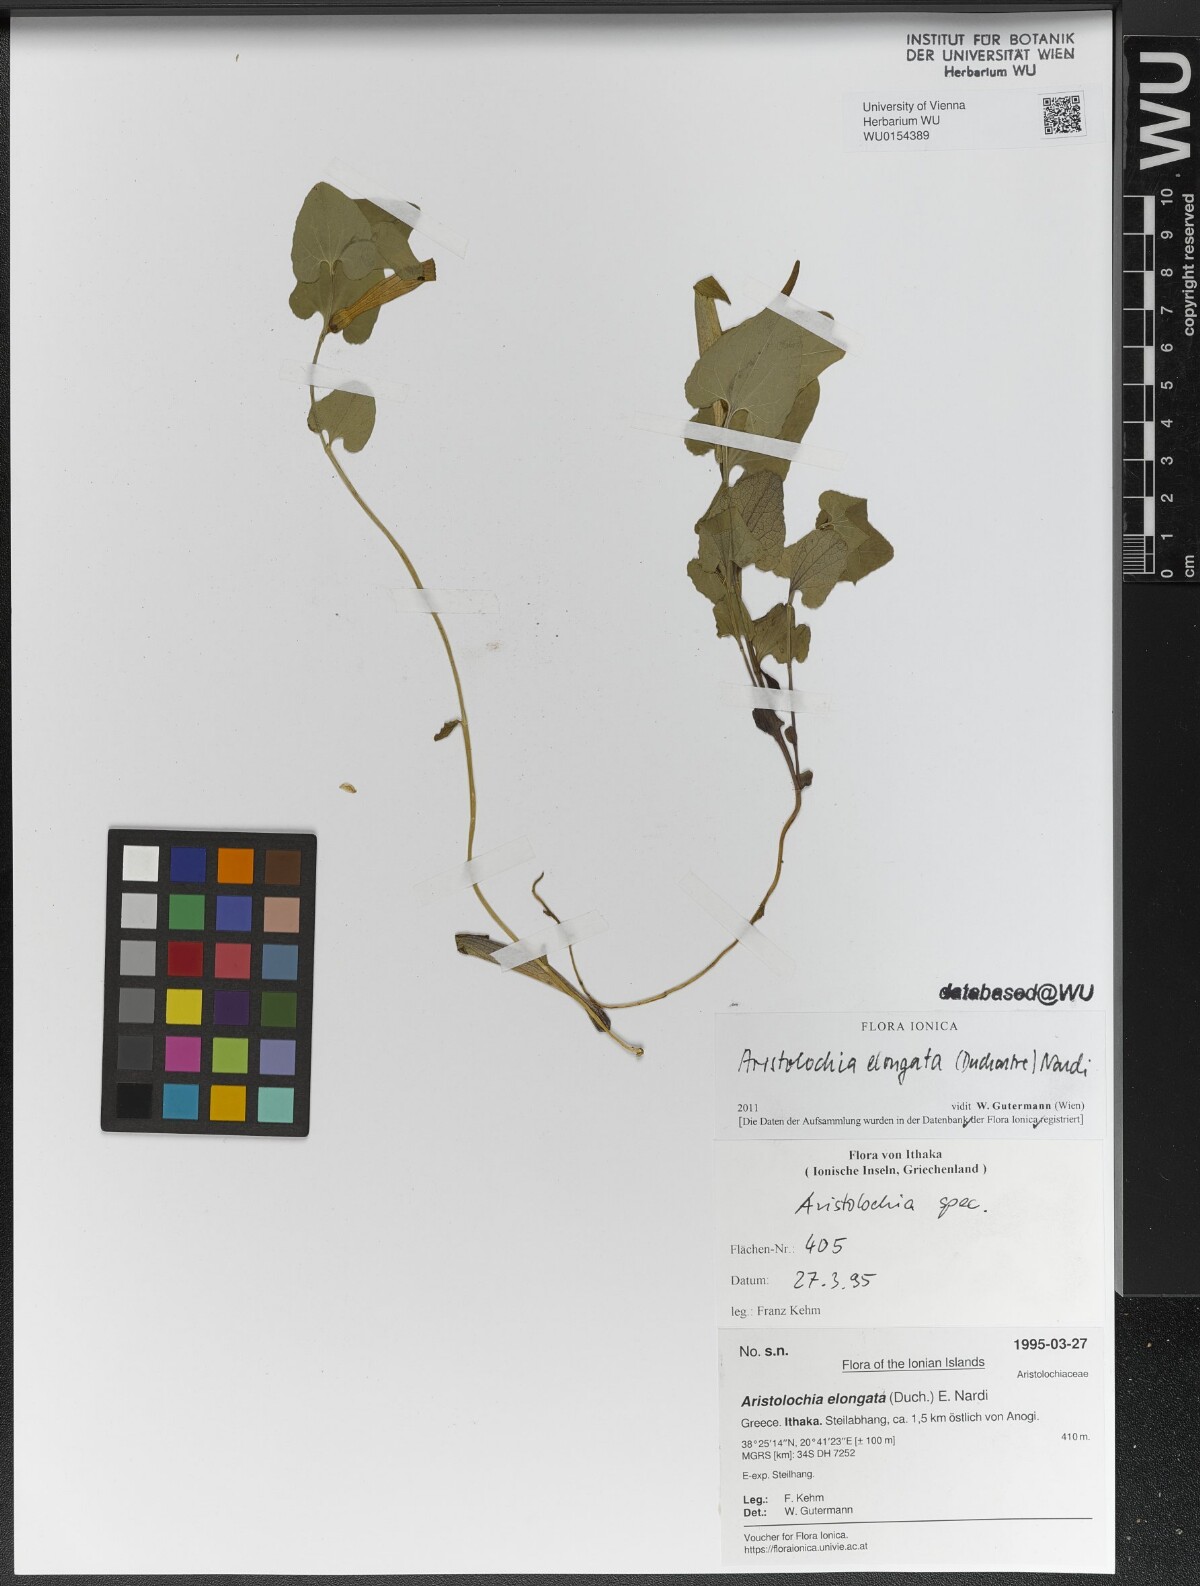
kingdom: Plantae
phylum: Tracheophyta
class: Magnoliopsida
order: Piperales
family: Aristolochiaceae
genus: Aristolochia
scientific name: Aristolochia nardiana
